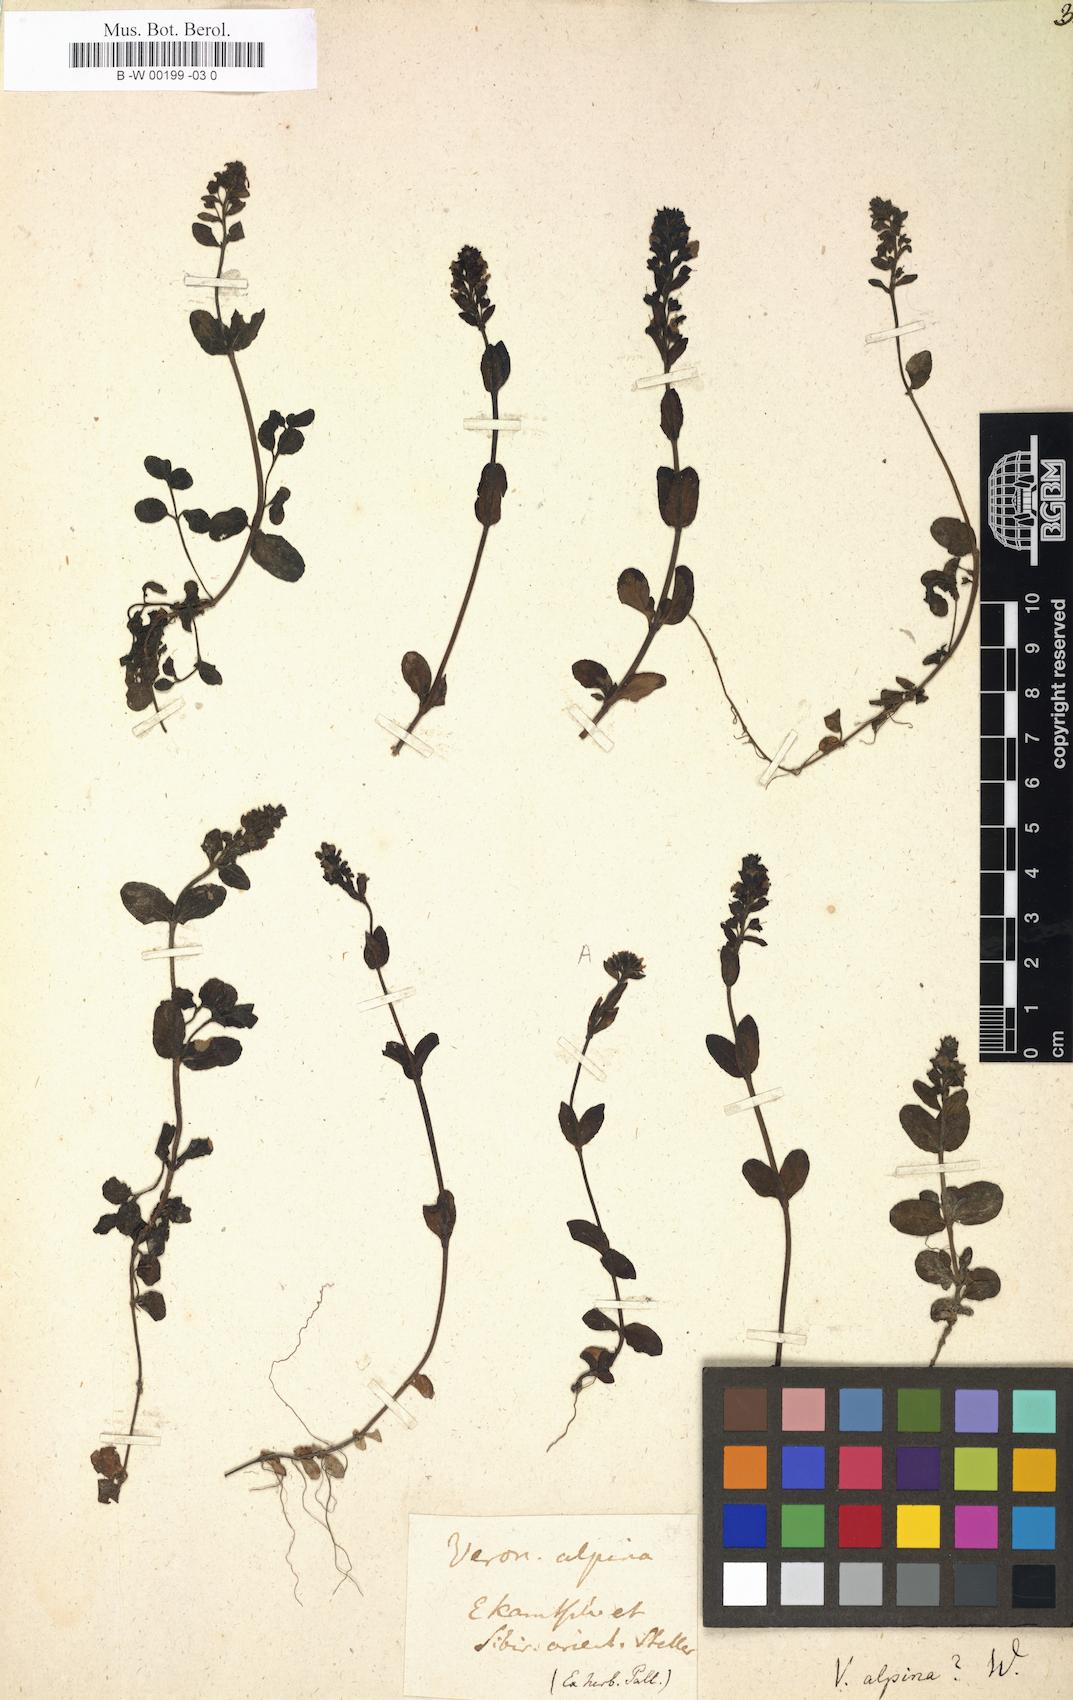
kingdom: Plantae
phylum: Tracheophyta
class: Magnoliopsida
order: Lamiales
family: Plantaginaceae
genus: Veronica
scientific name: Veronica alpina
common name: Alpine speedwell
